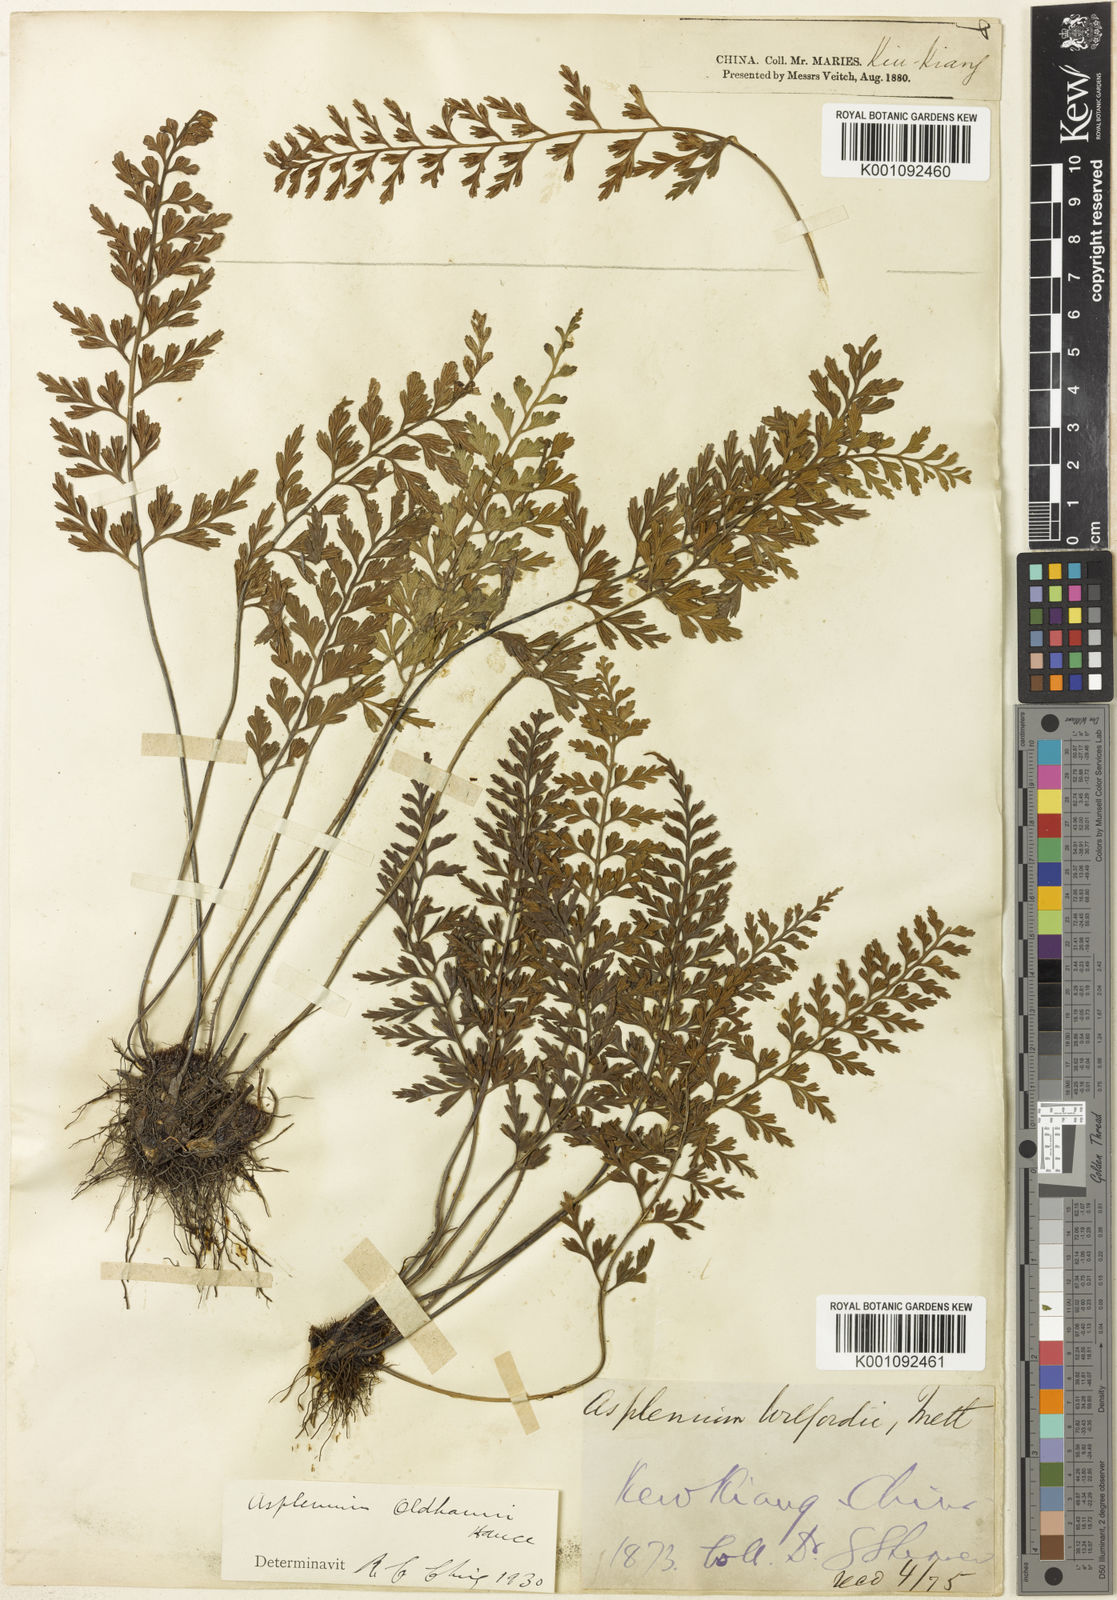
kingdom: Plantae
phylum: Tracheophyta
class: Polypodiopsida
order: Polypodiales
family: Aspleniaceae
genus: Asplenium
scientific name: Asplenium oldhamii
